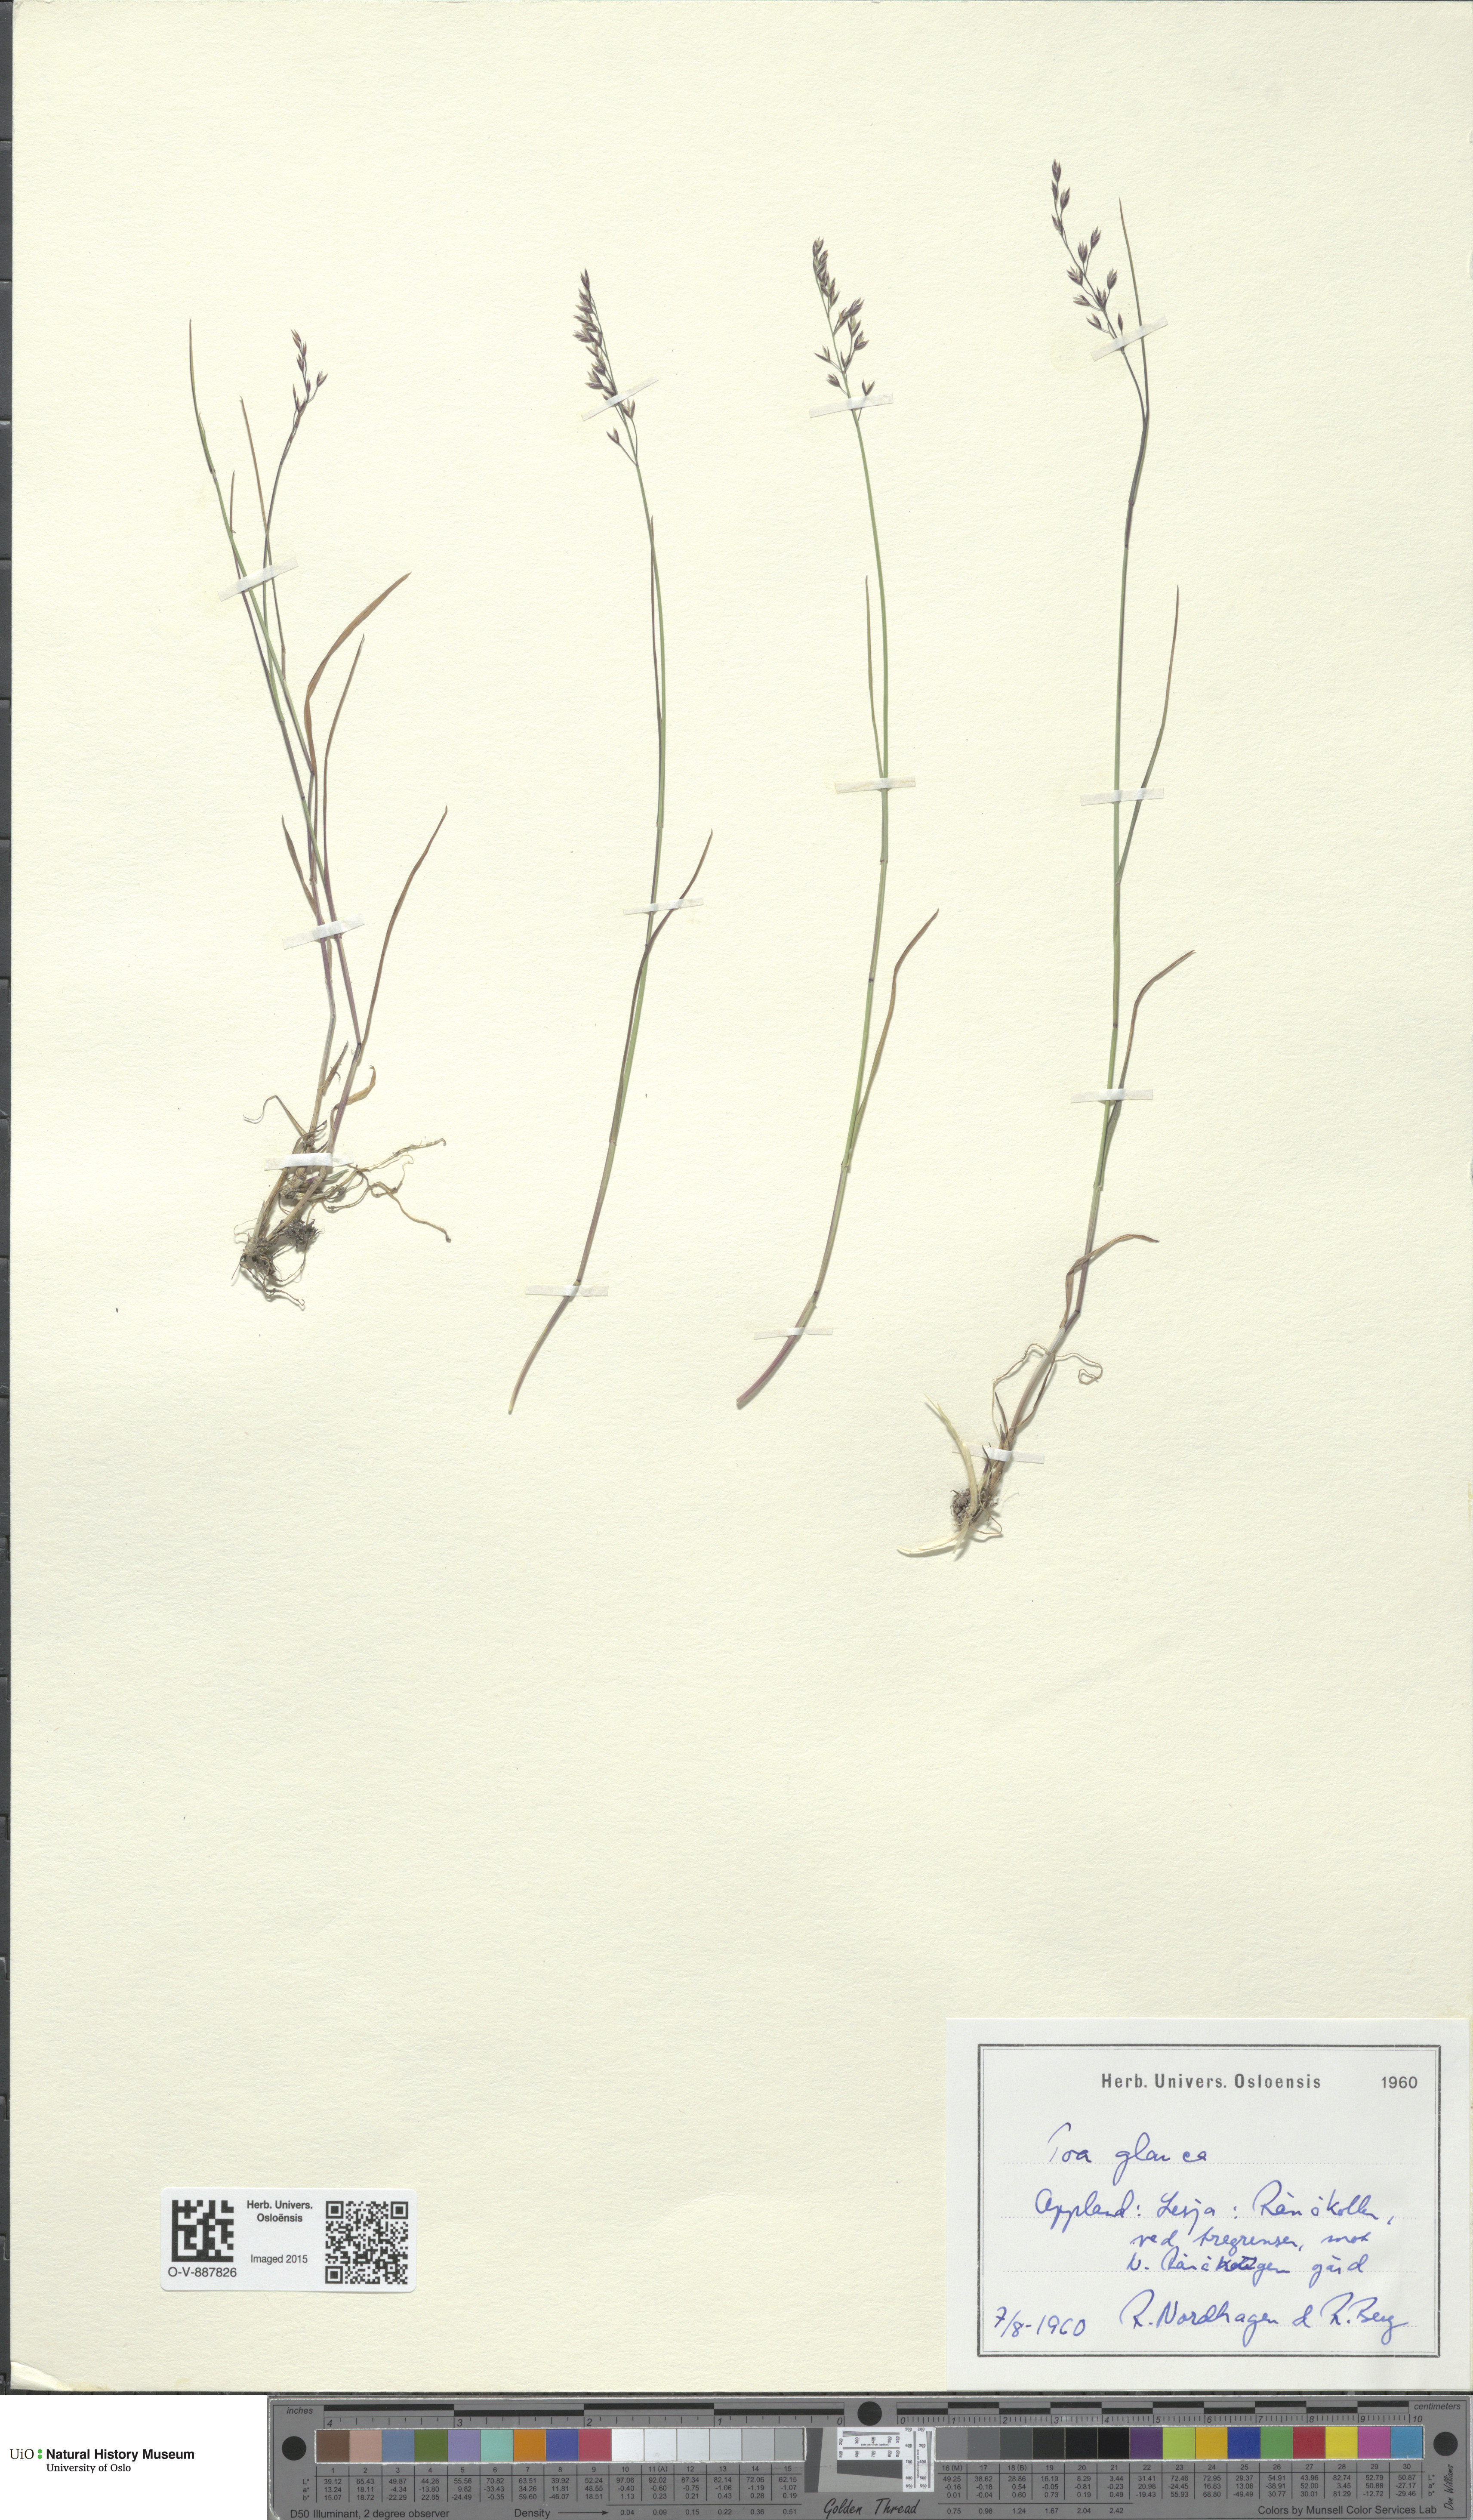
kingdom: Plantae
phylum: Tracheophyta
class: Liliopsida
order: Poales
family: Poaceae
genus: Poa
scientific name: Poa glauca
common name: Glaucous bluegrass
